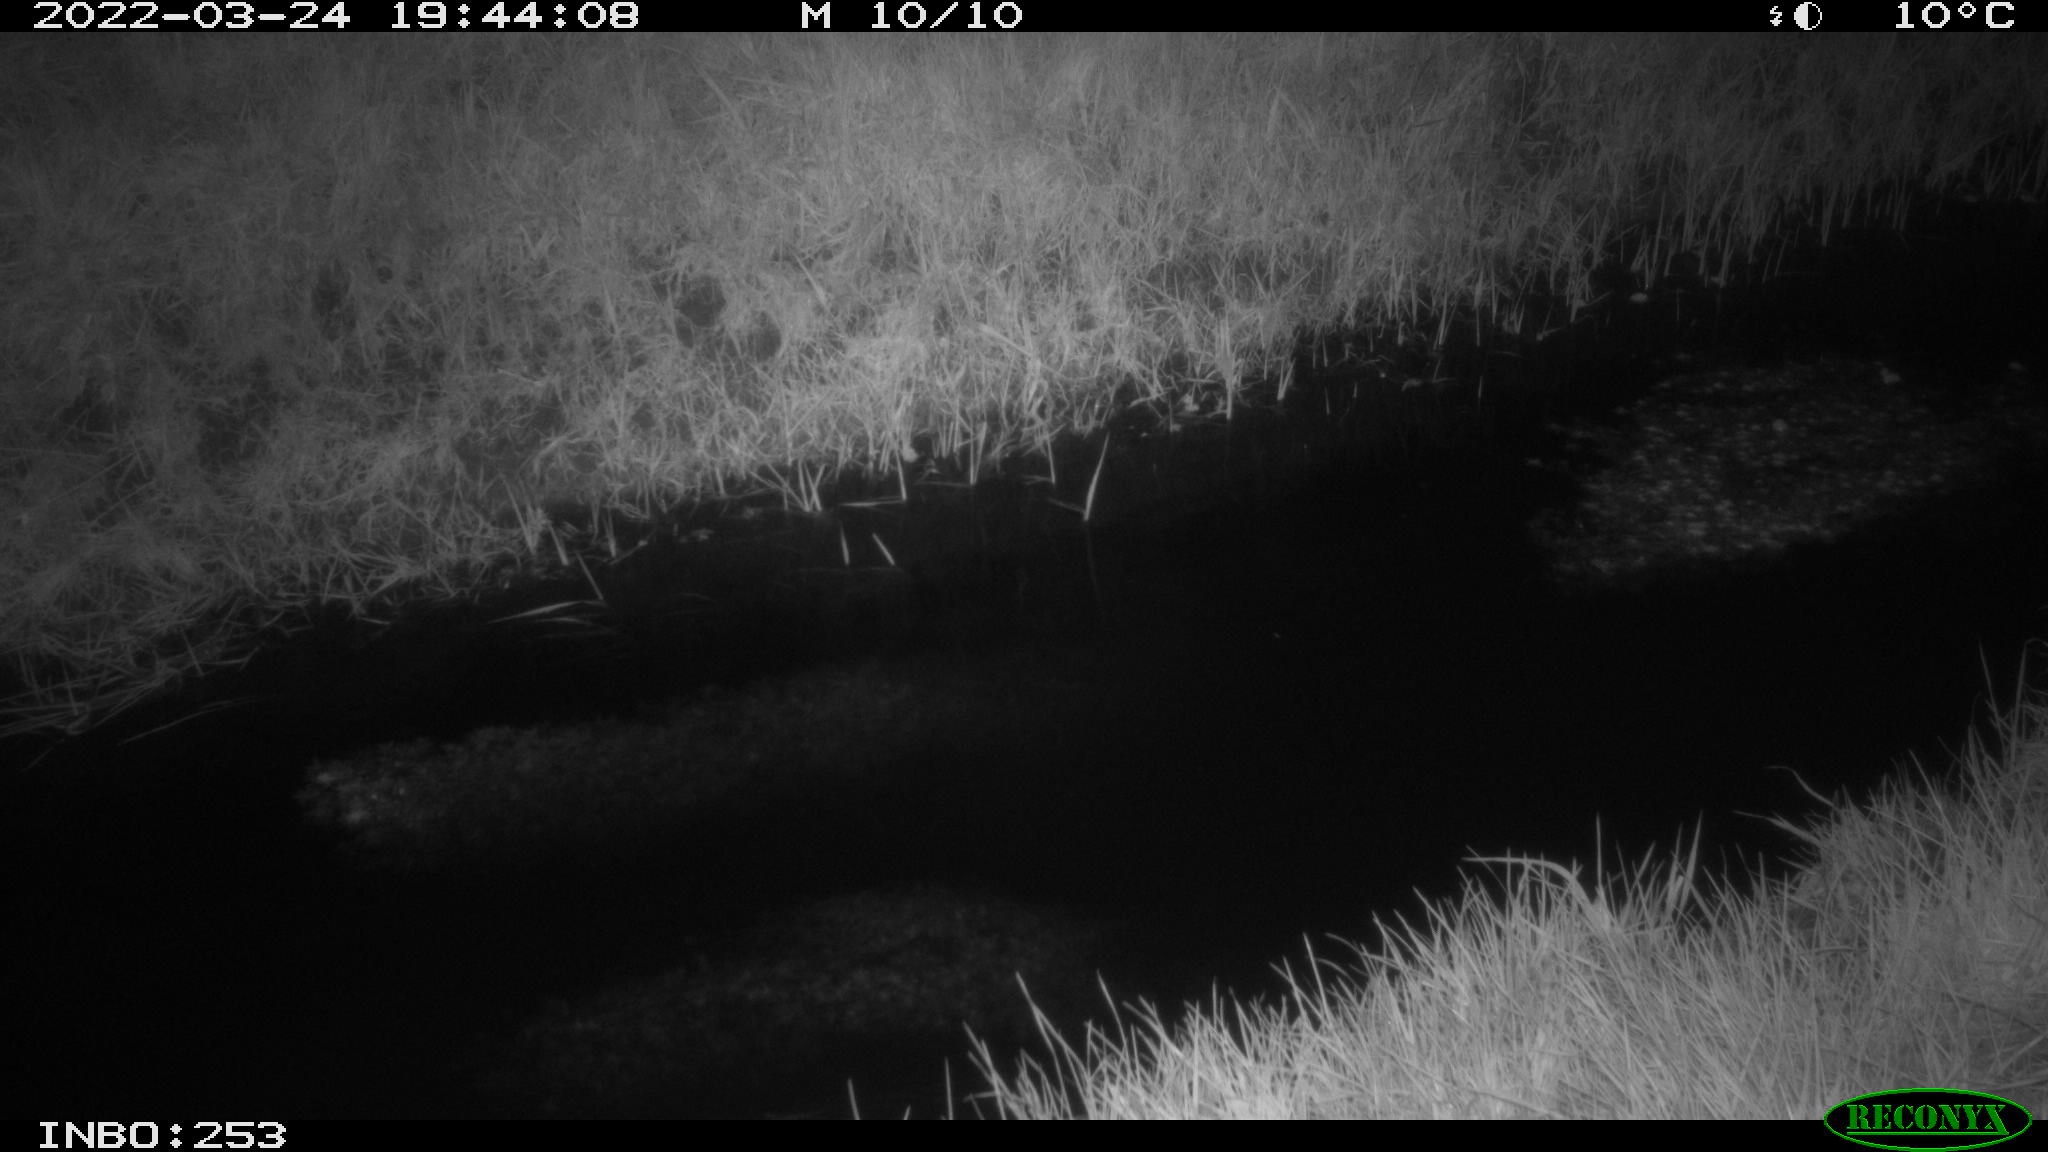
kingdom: Animalia
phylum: Chordata
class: Aves
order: Anseriformes
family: Anatidae
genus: Anas
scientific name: Anas platyrhynchos
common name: Mallard
